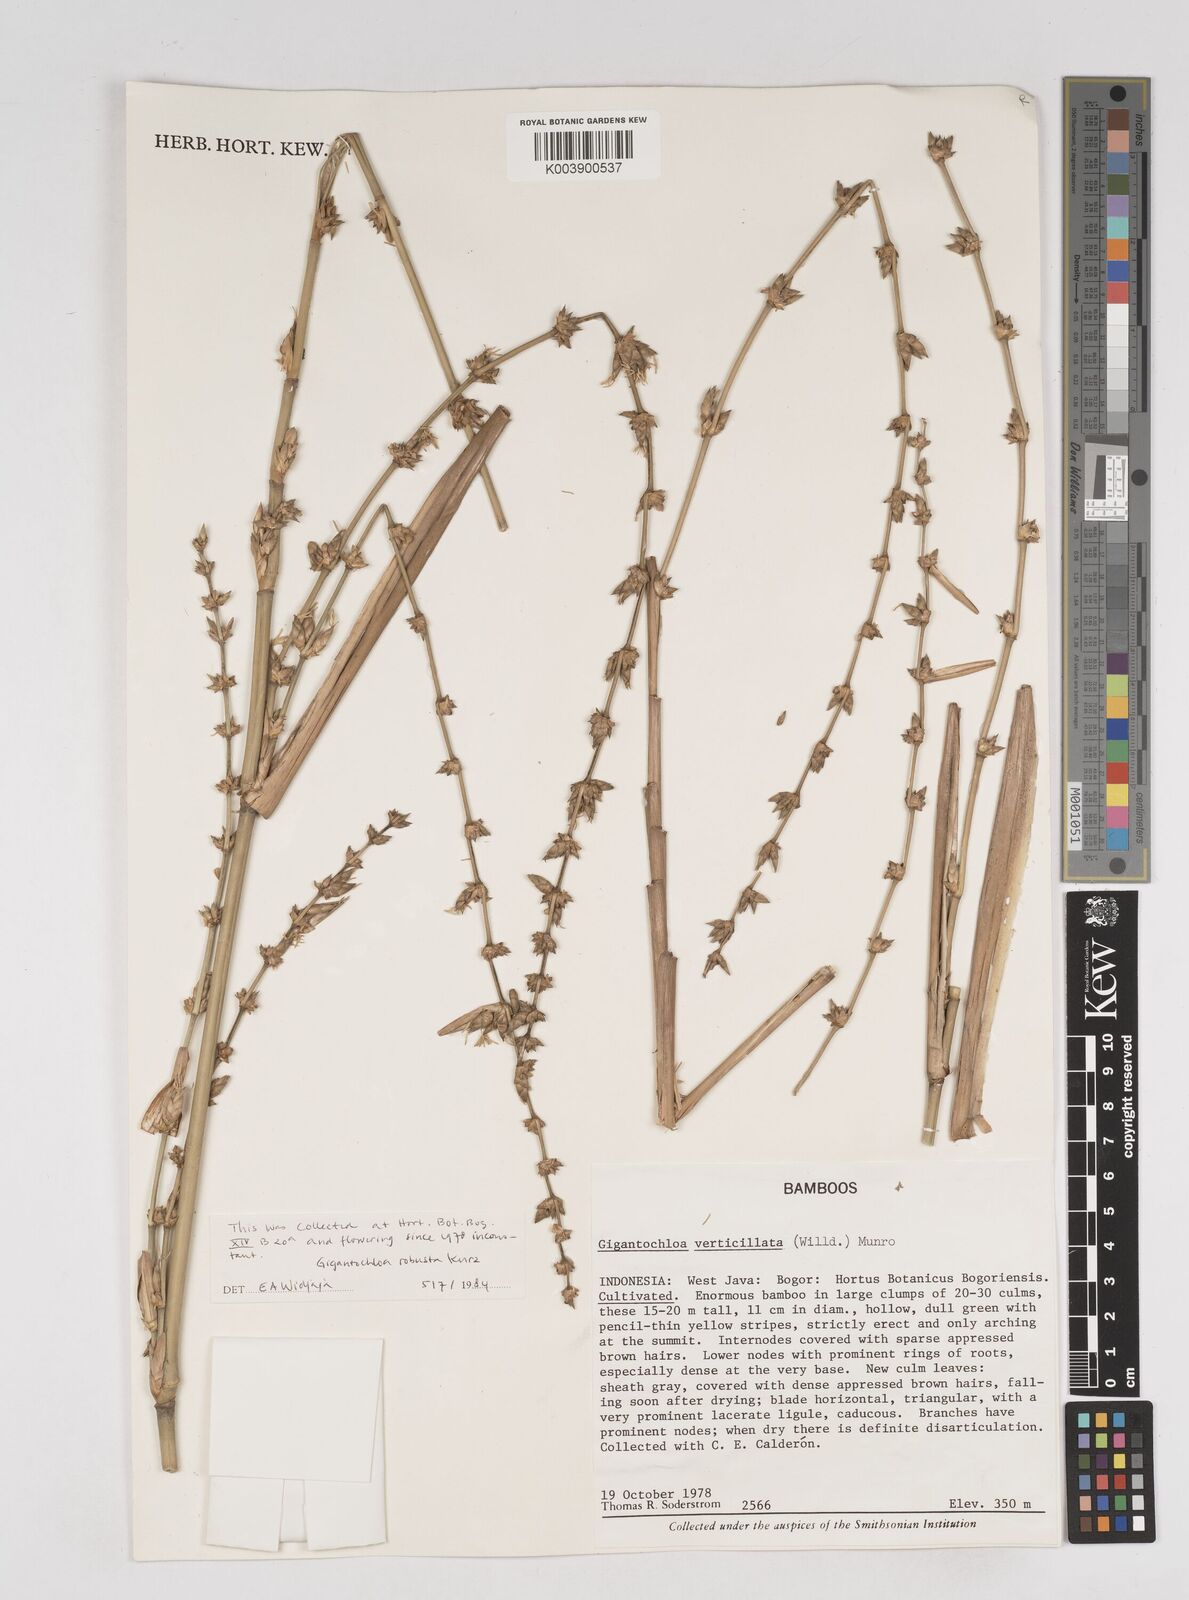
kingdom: Plantae
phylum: Tracheophyta
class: Liliopsida
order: Poales
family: Poaceae
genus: Gigantochloa
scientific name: Gigantochloa robusta
